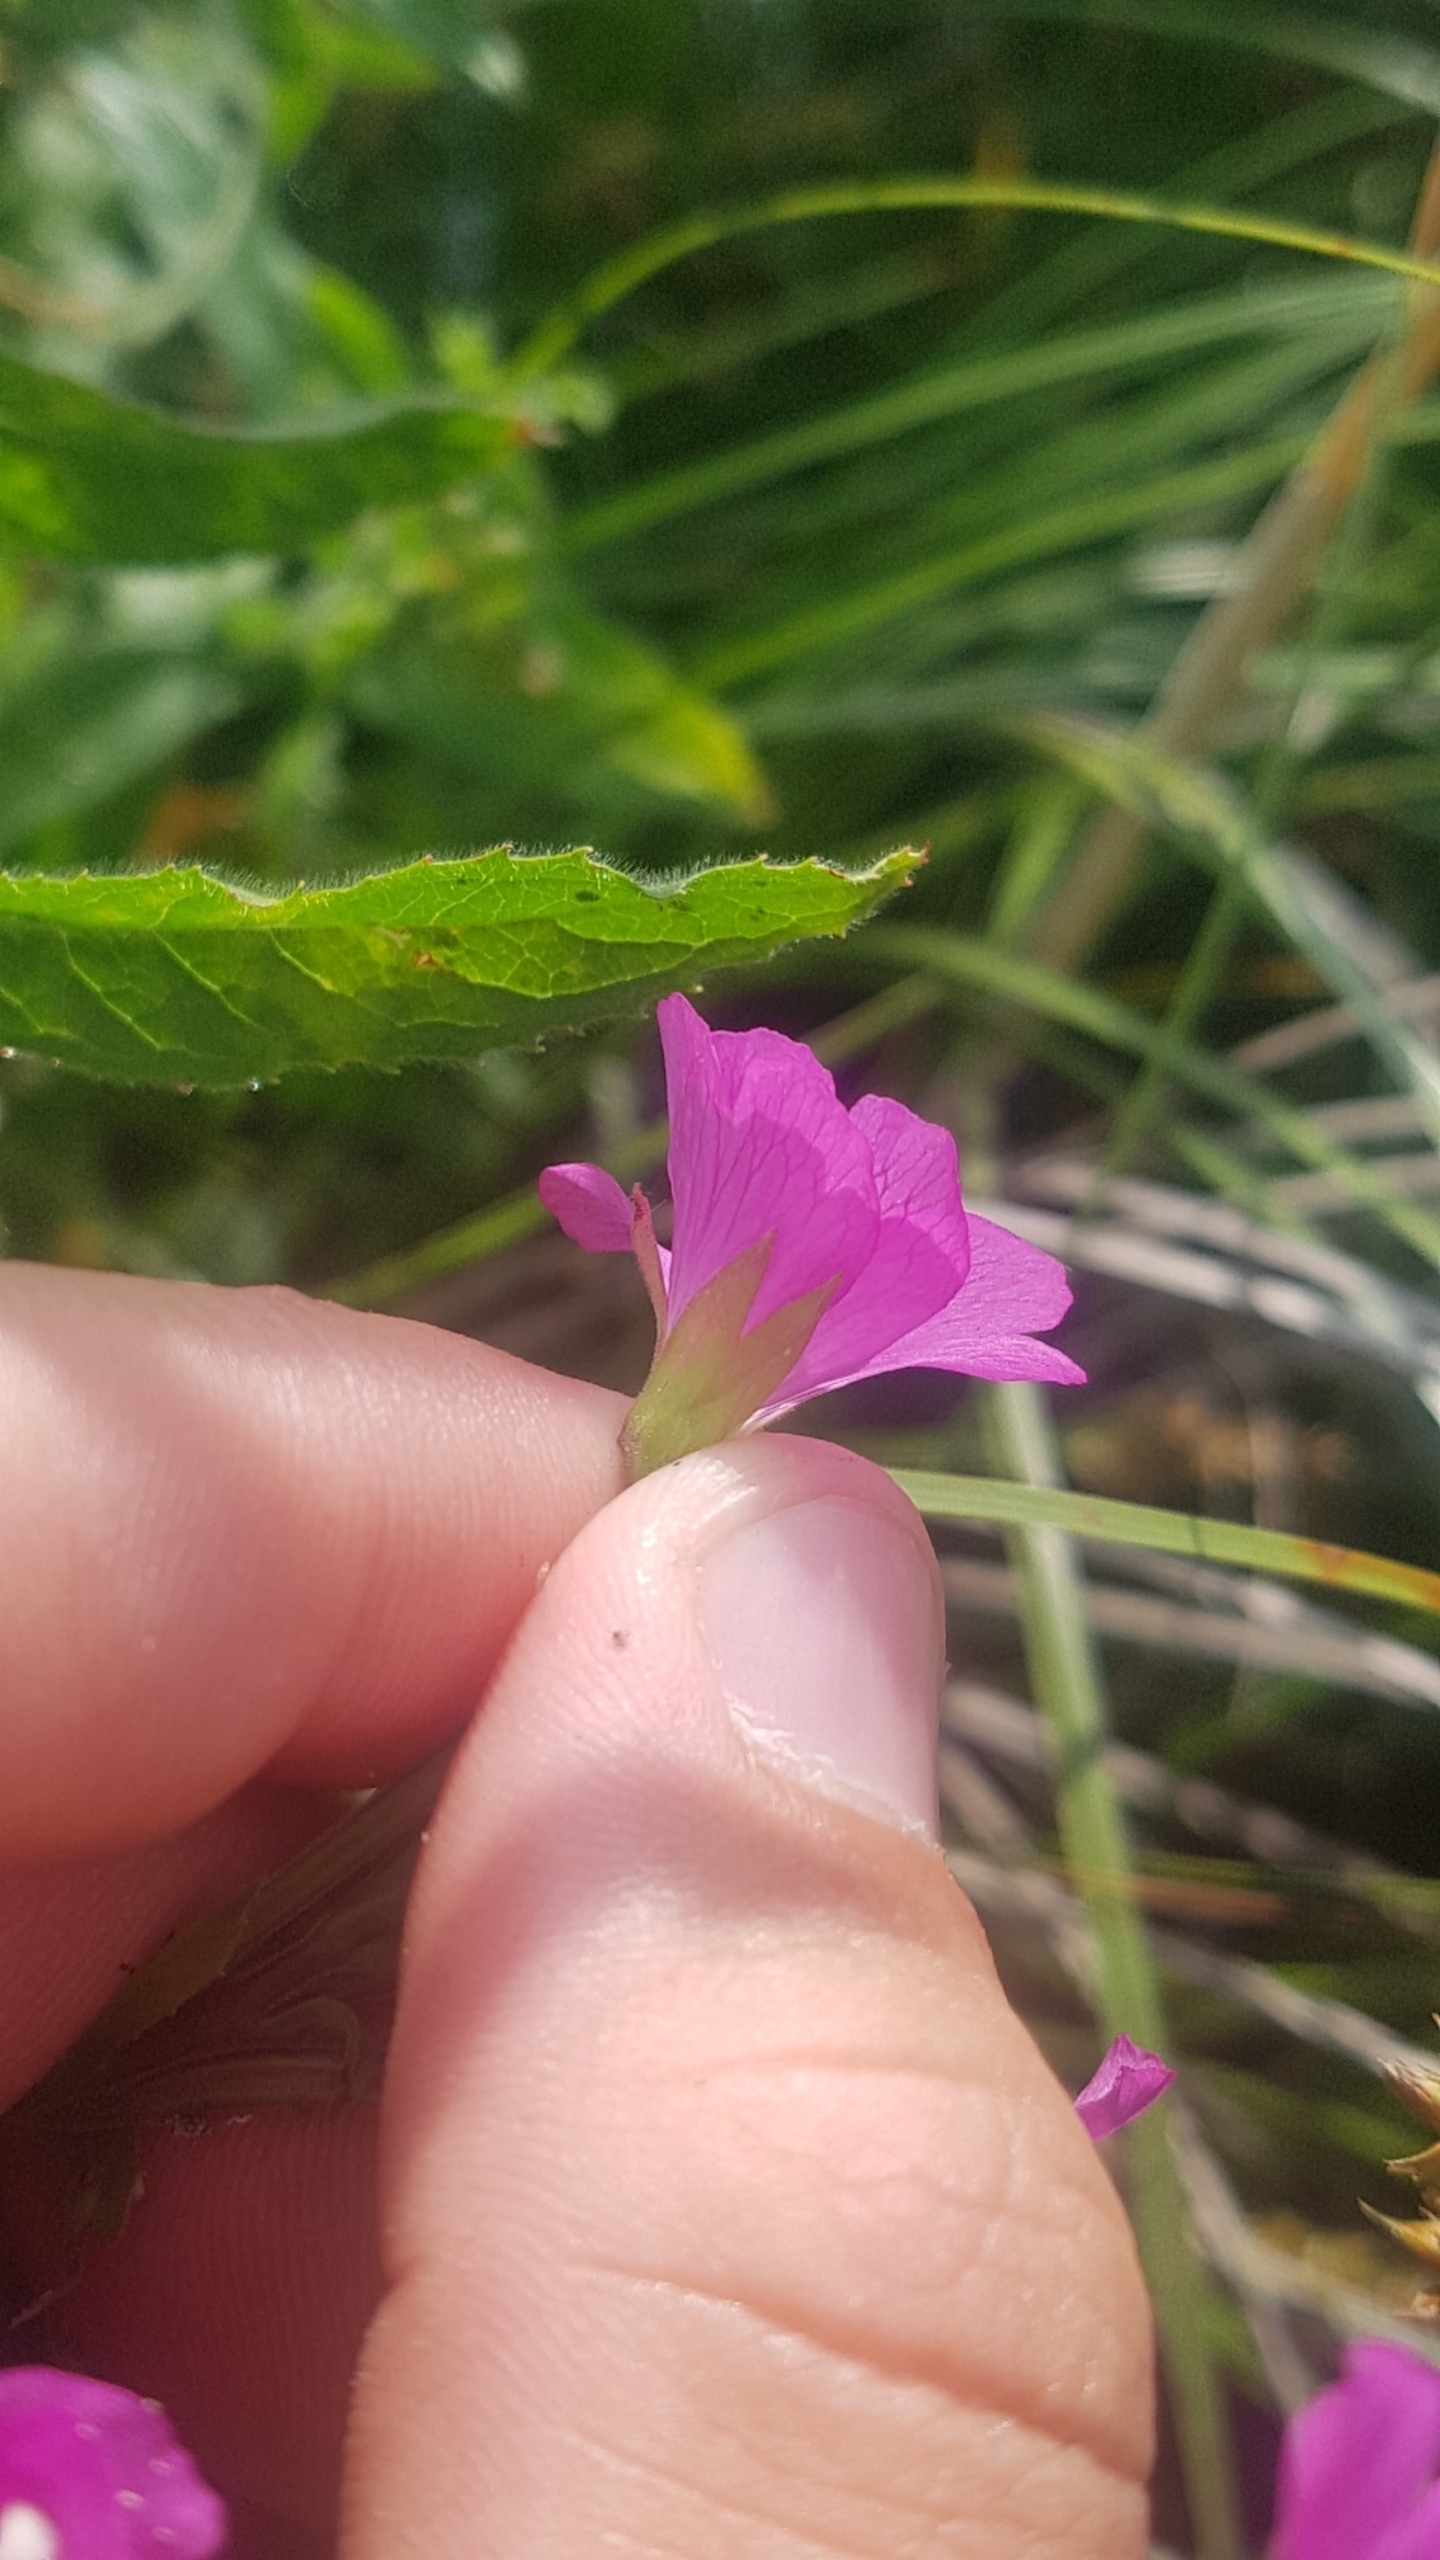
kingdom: Plantae
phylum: Tracheophyta
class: Magnoliopsida
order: Myrtales
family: Onagraceae
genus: Epilobium
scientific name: Epilobium hirsutum
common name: Lådden dueurt
